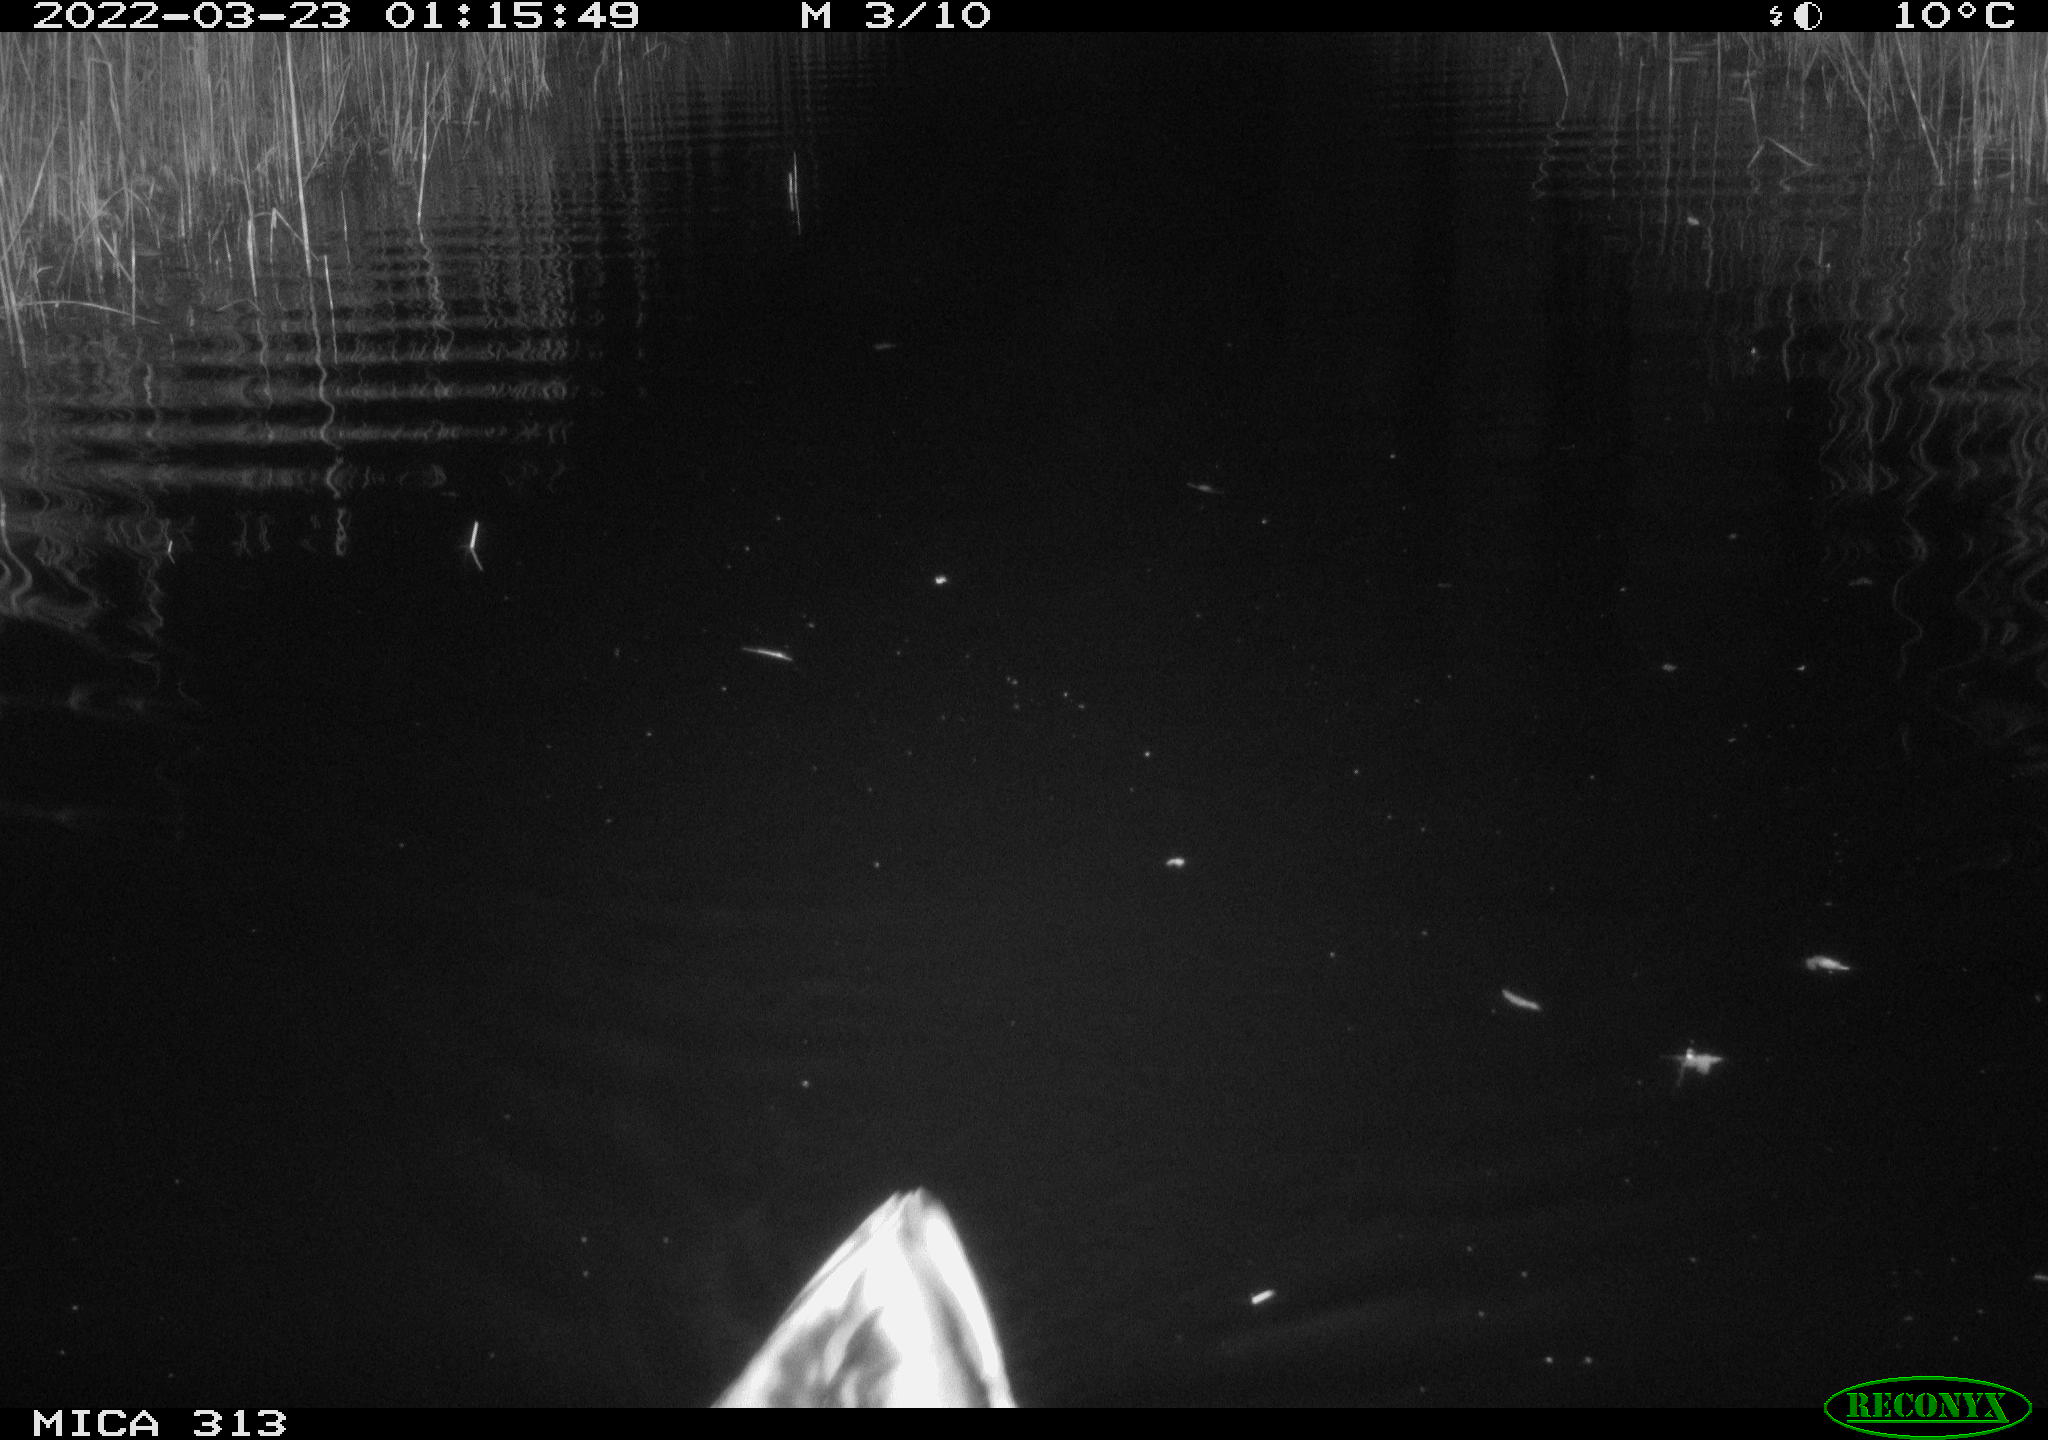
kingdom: Animalia
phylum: Chordata
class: Aves
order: Anseriformes
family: Anatidae
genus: Anas
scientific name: Anas platyrhynchos
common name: Mallard
